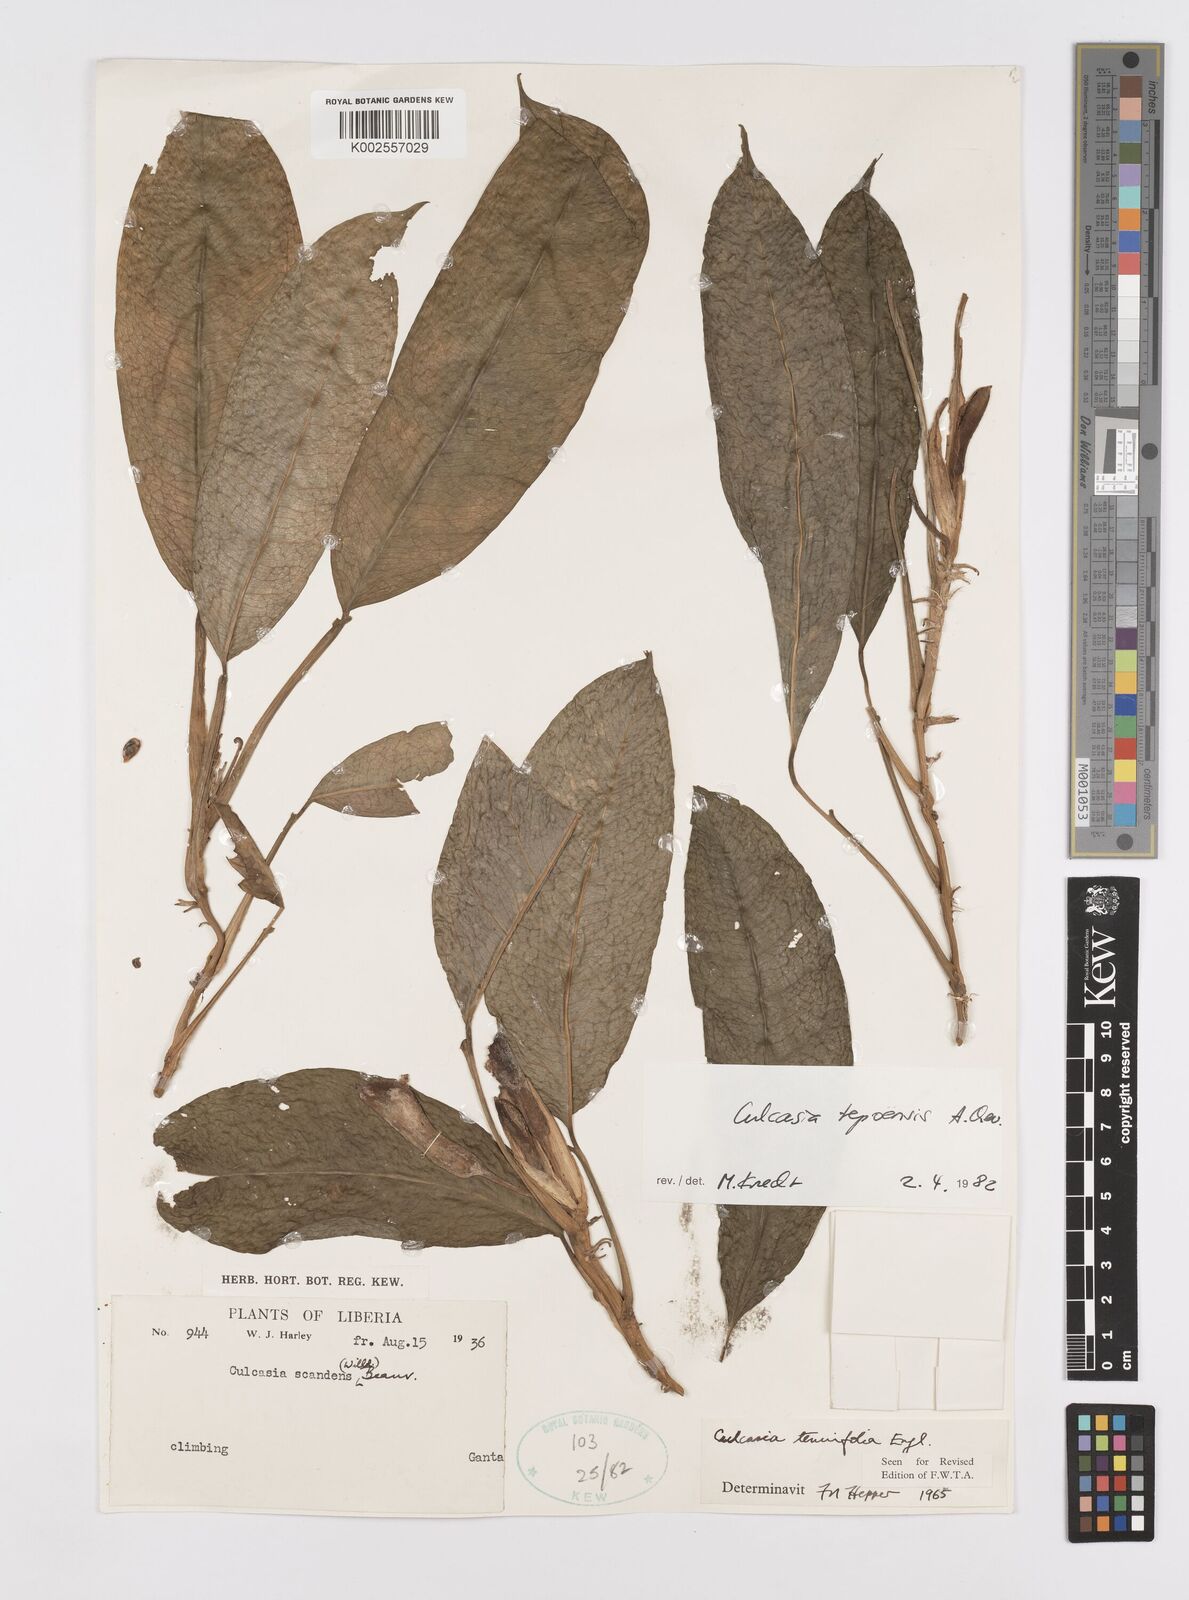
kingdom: Plantae
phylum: Tracheophyta
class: Liliopsida
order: Alismatales
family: Araceae
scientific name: Araceae
